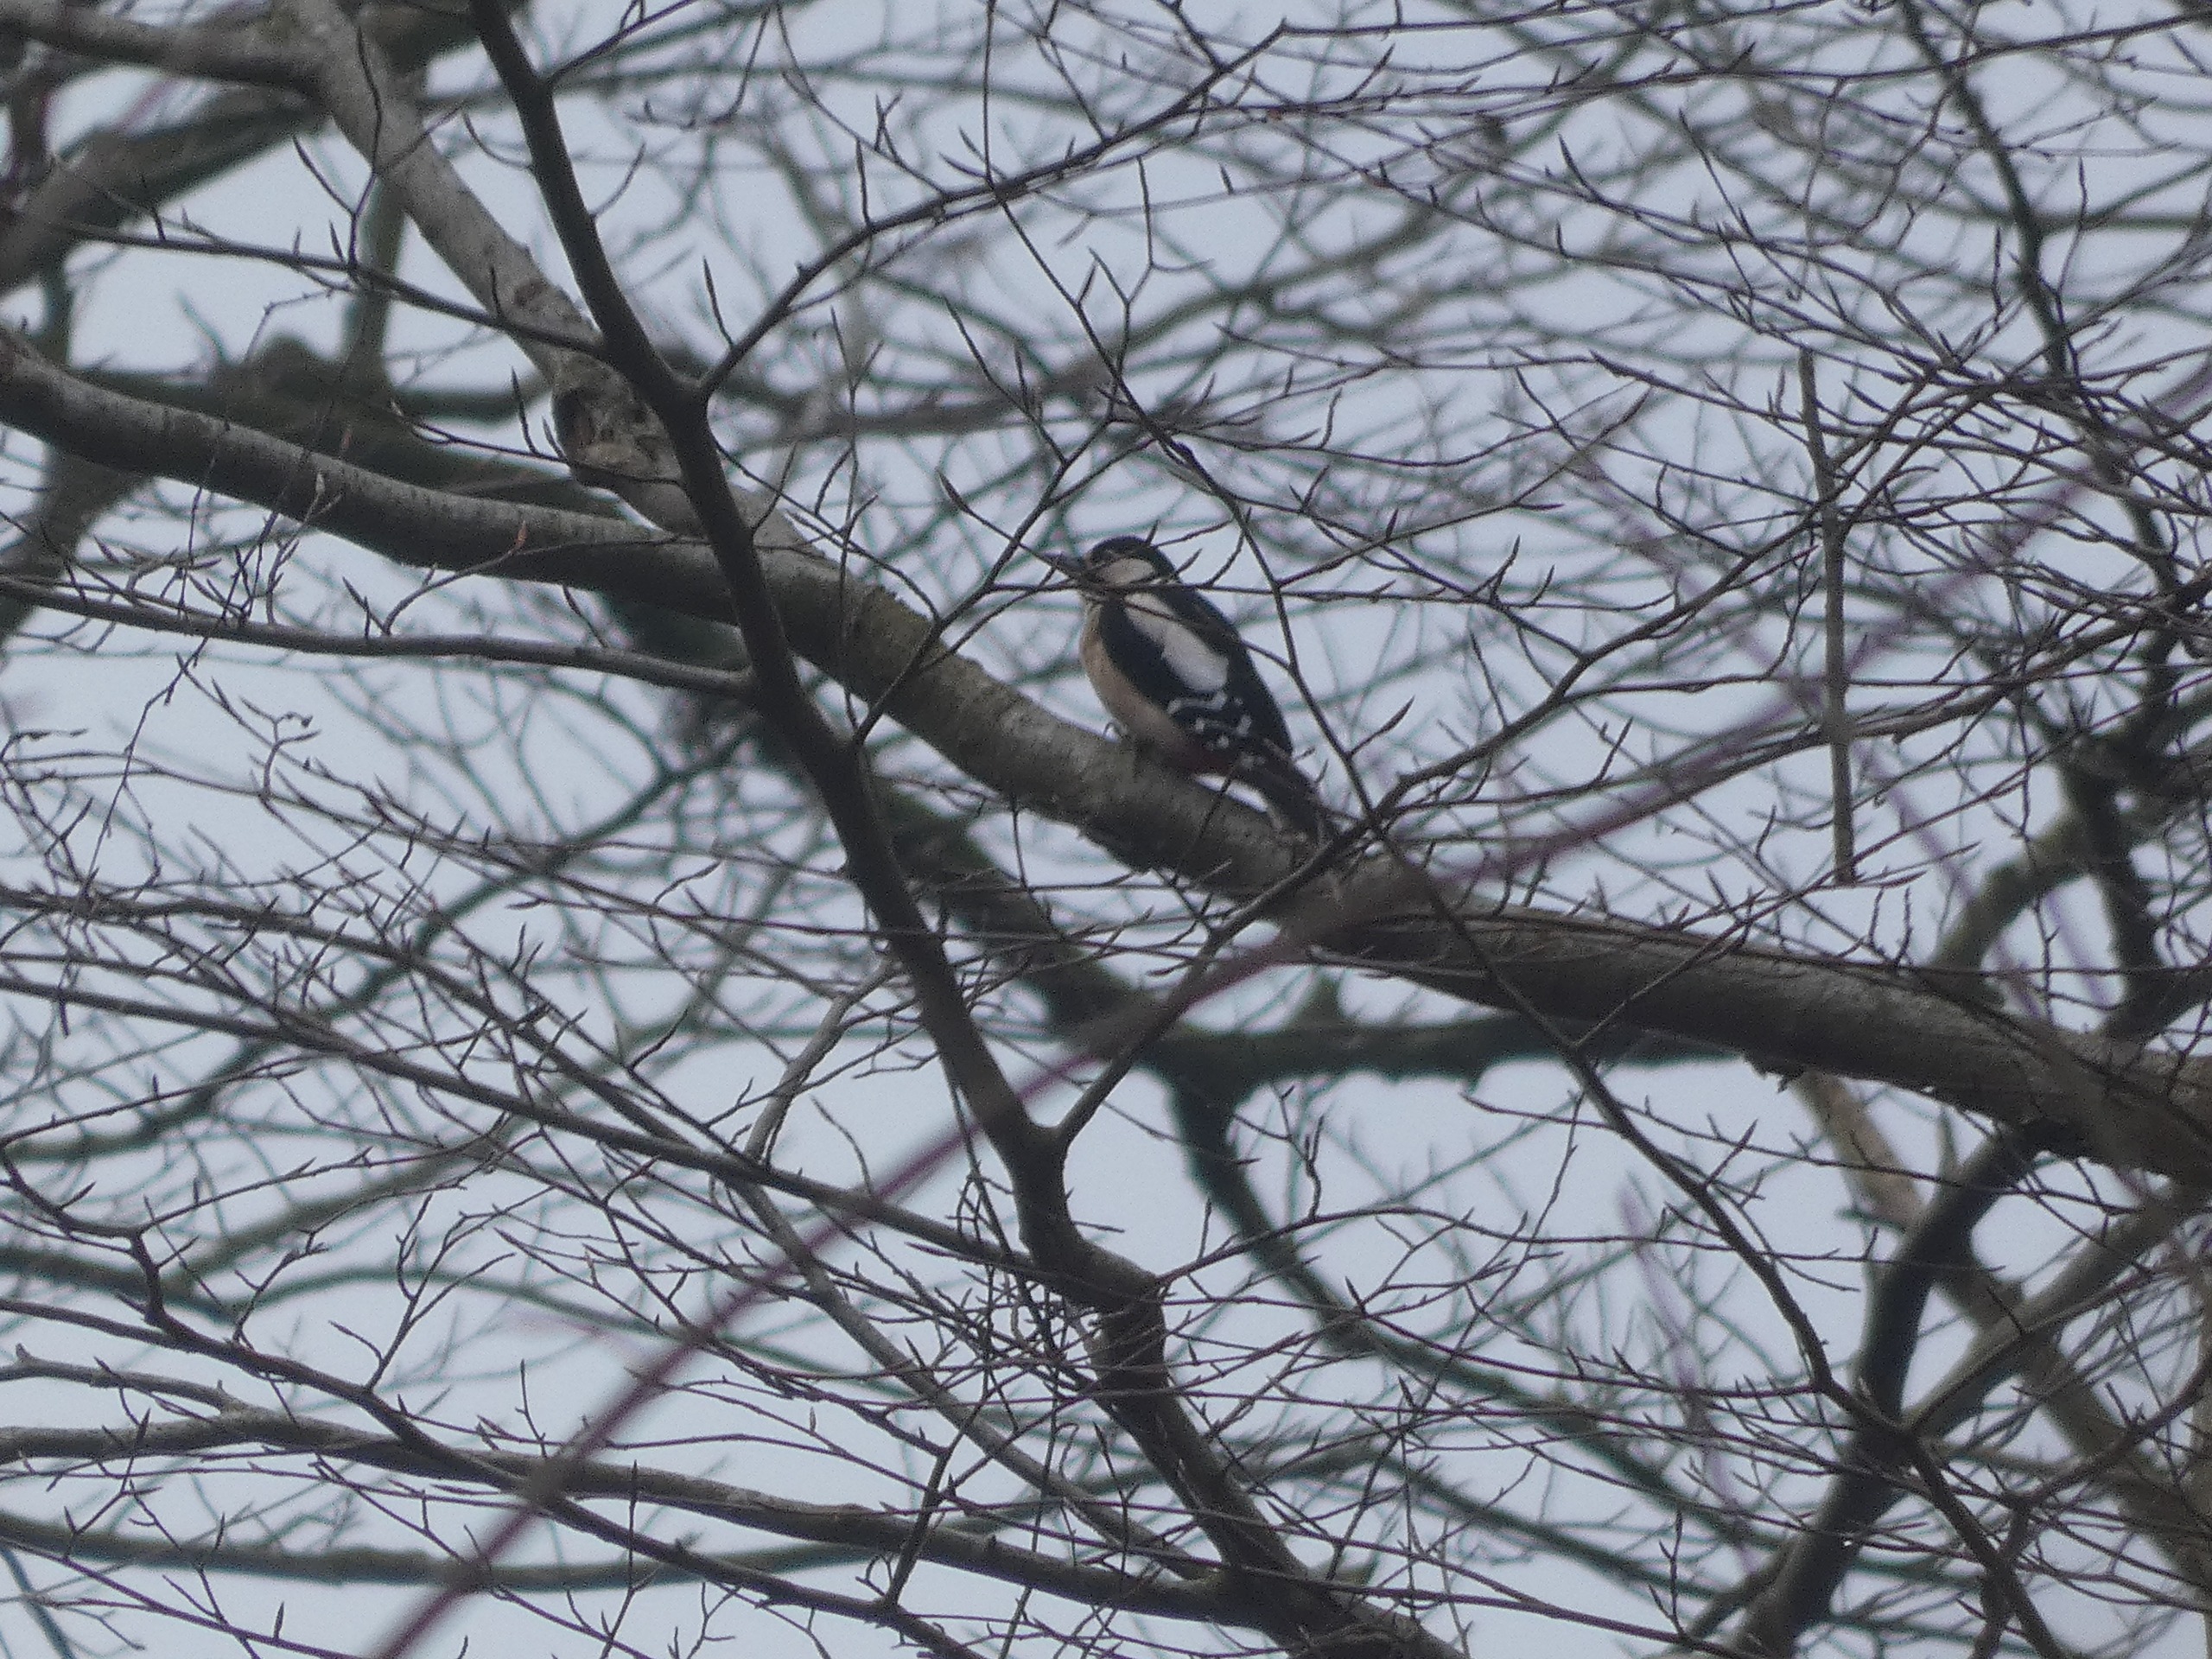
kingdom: Animalia
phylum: Chordata
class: Aves
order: Piciformes
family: Picidae
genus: Dendrocopos
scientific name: Dendrocopos major
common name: Stor flagspætte
